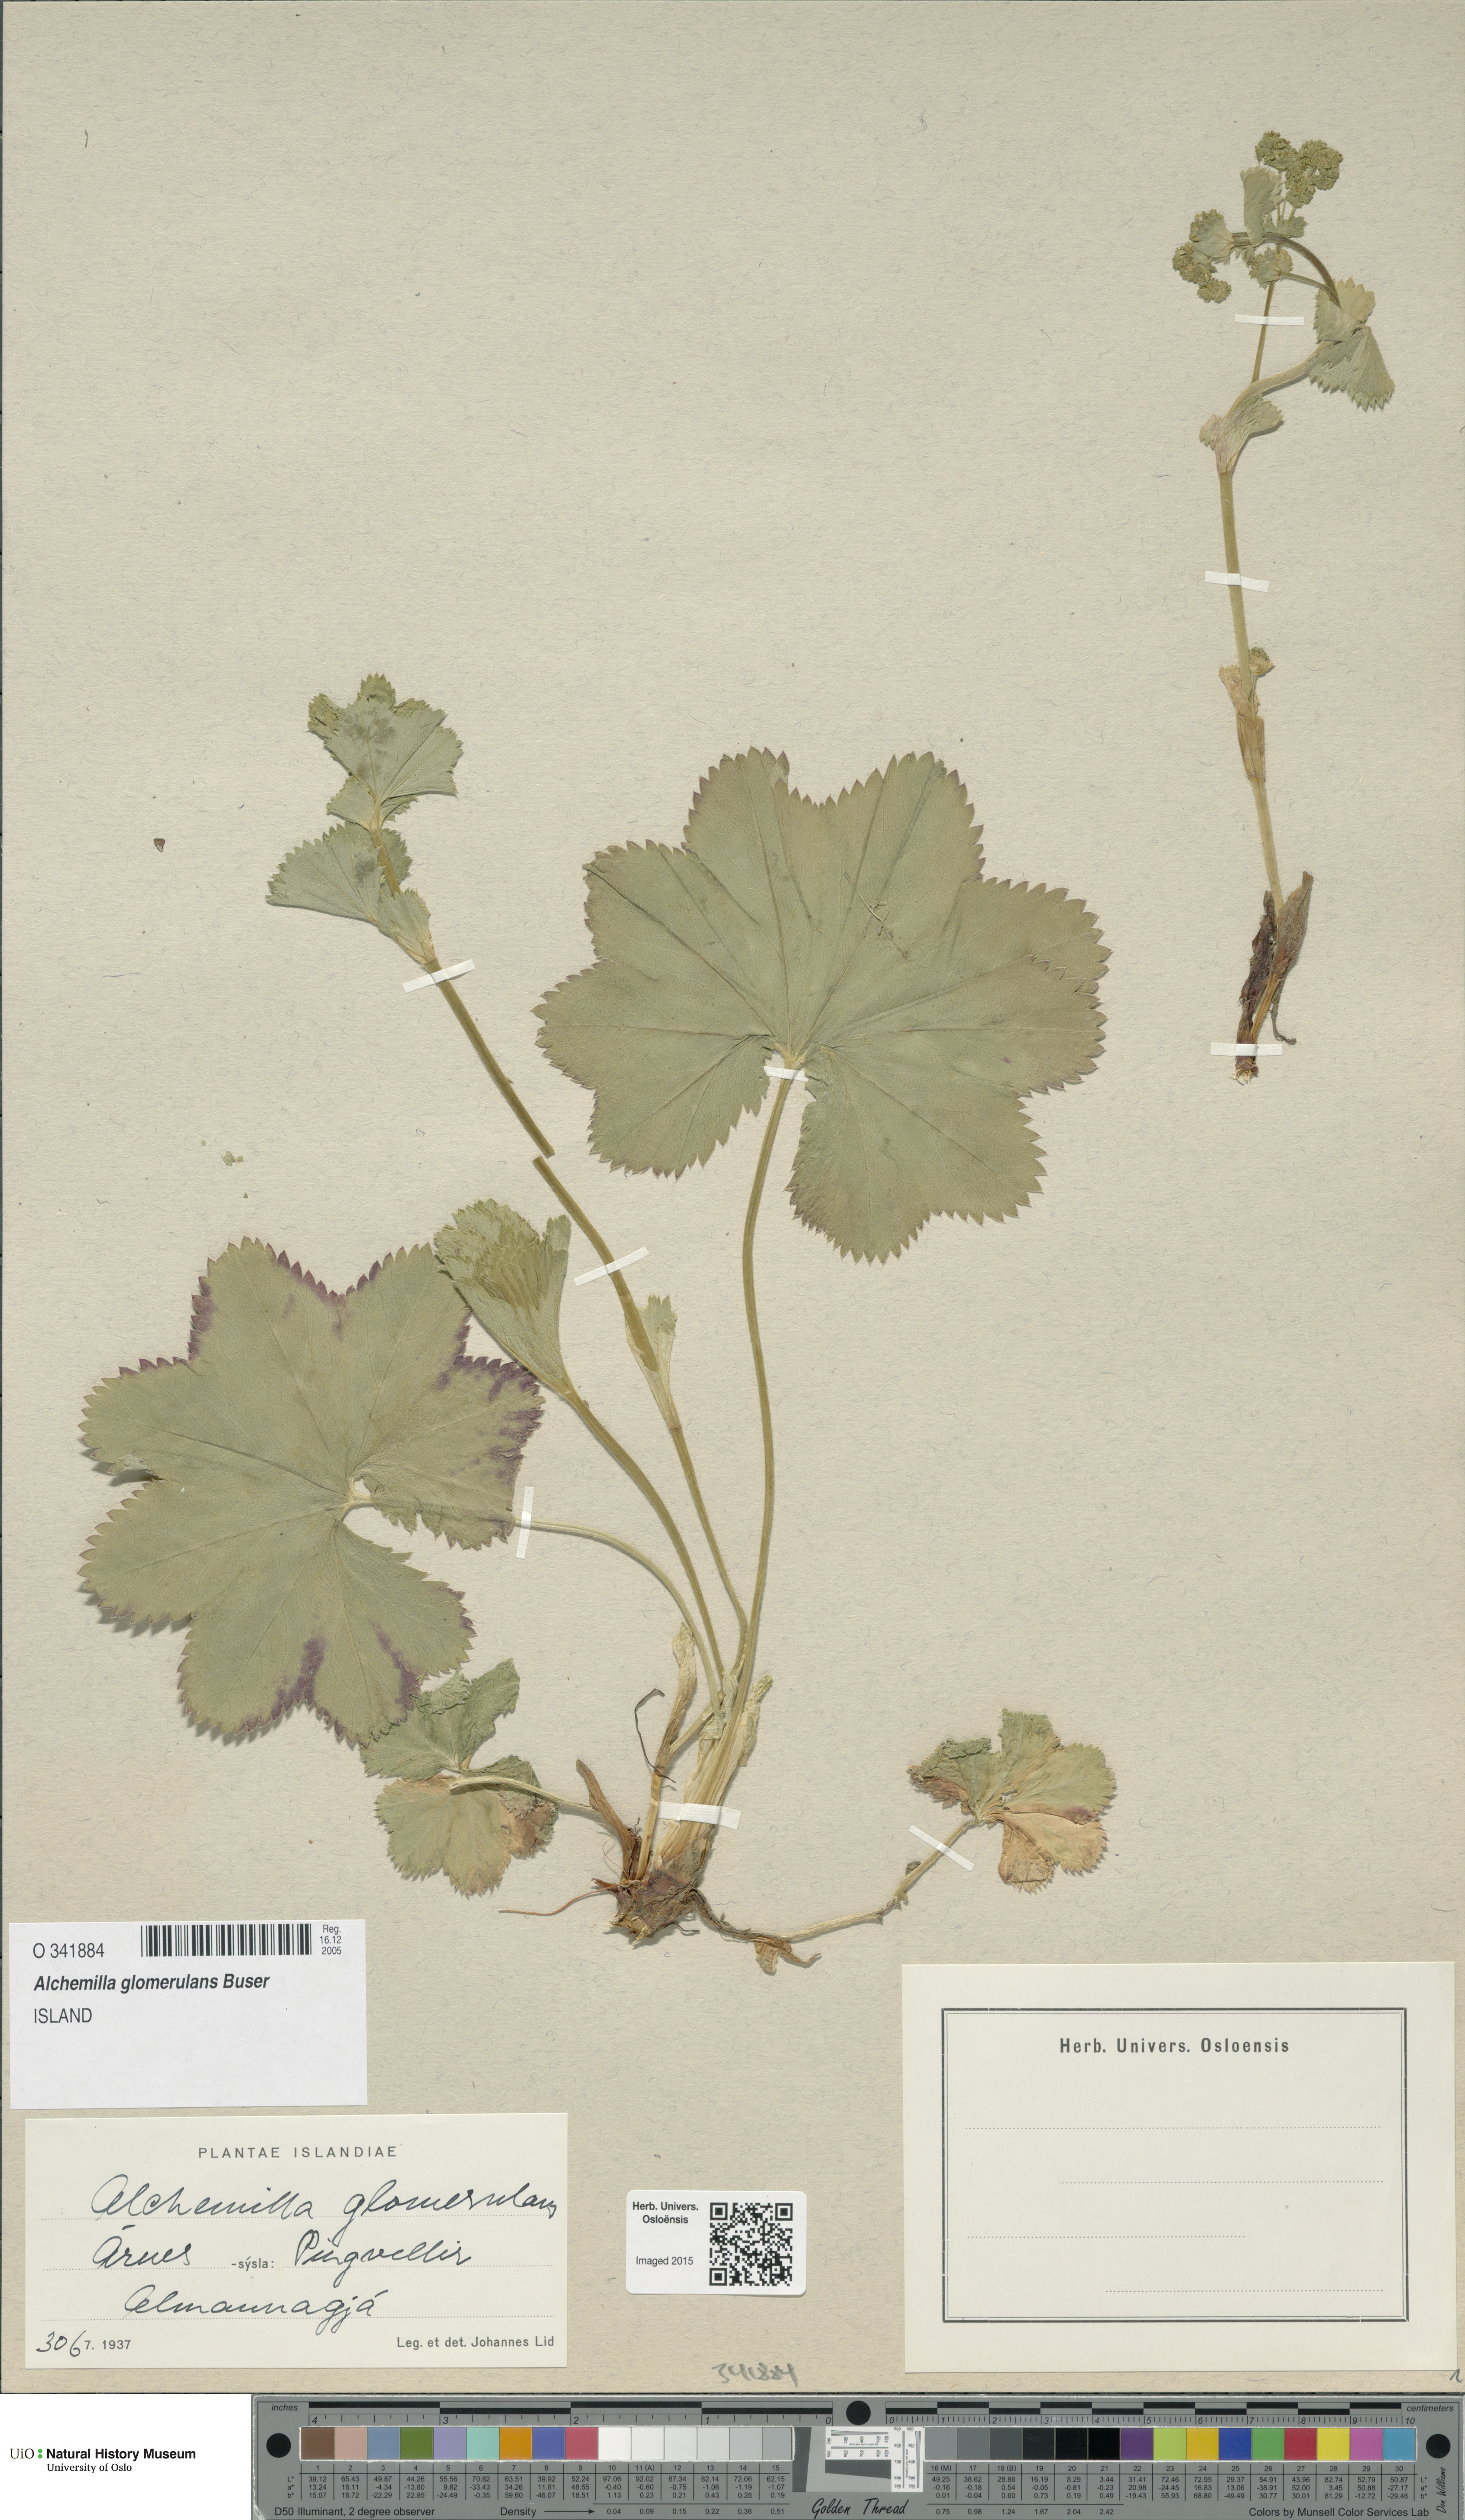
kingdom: Plantae
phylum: Tracheophyta
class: Magnoliopsida
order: Rosales
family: Rosaceae
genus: Alchemilla
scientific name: Alchemilla glomerulans
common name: Clustered lady's mantle
